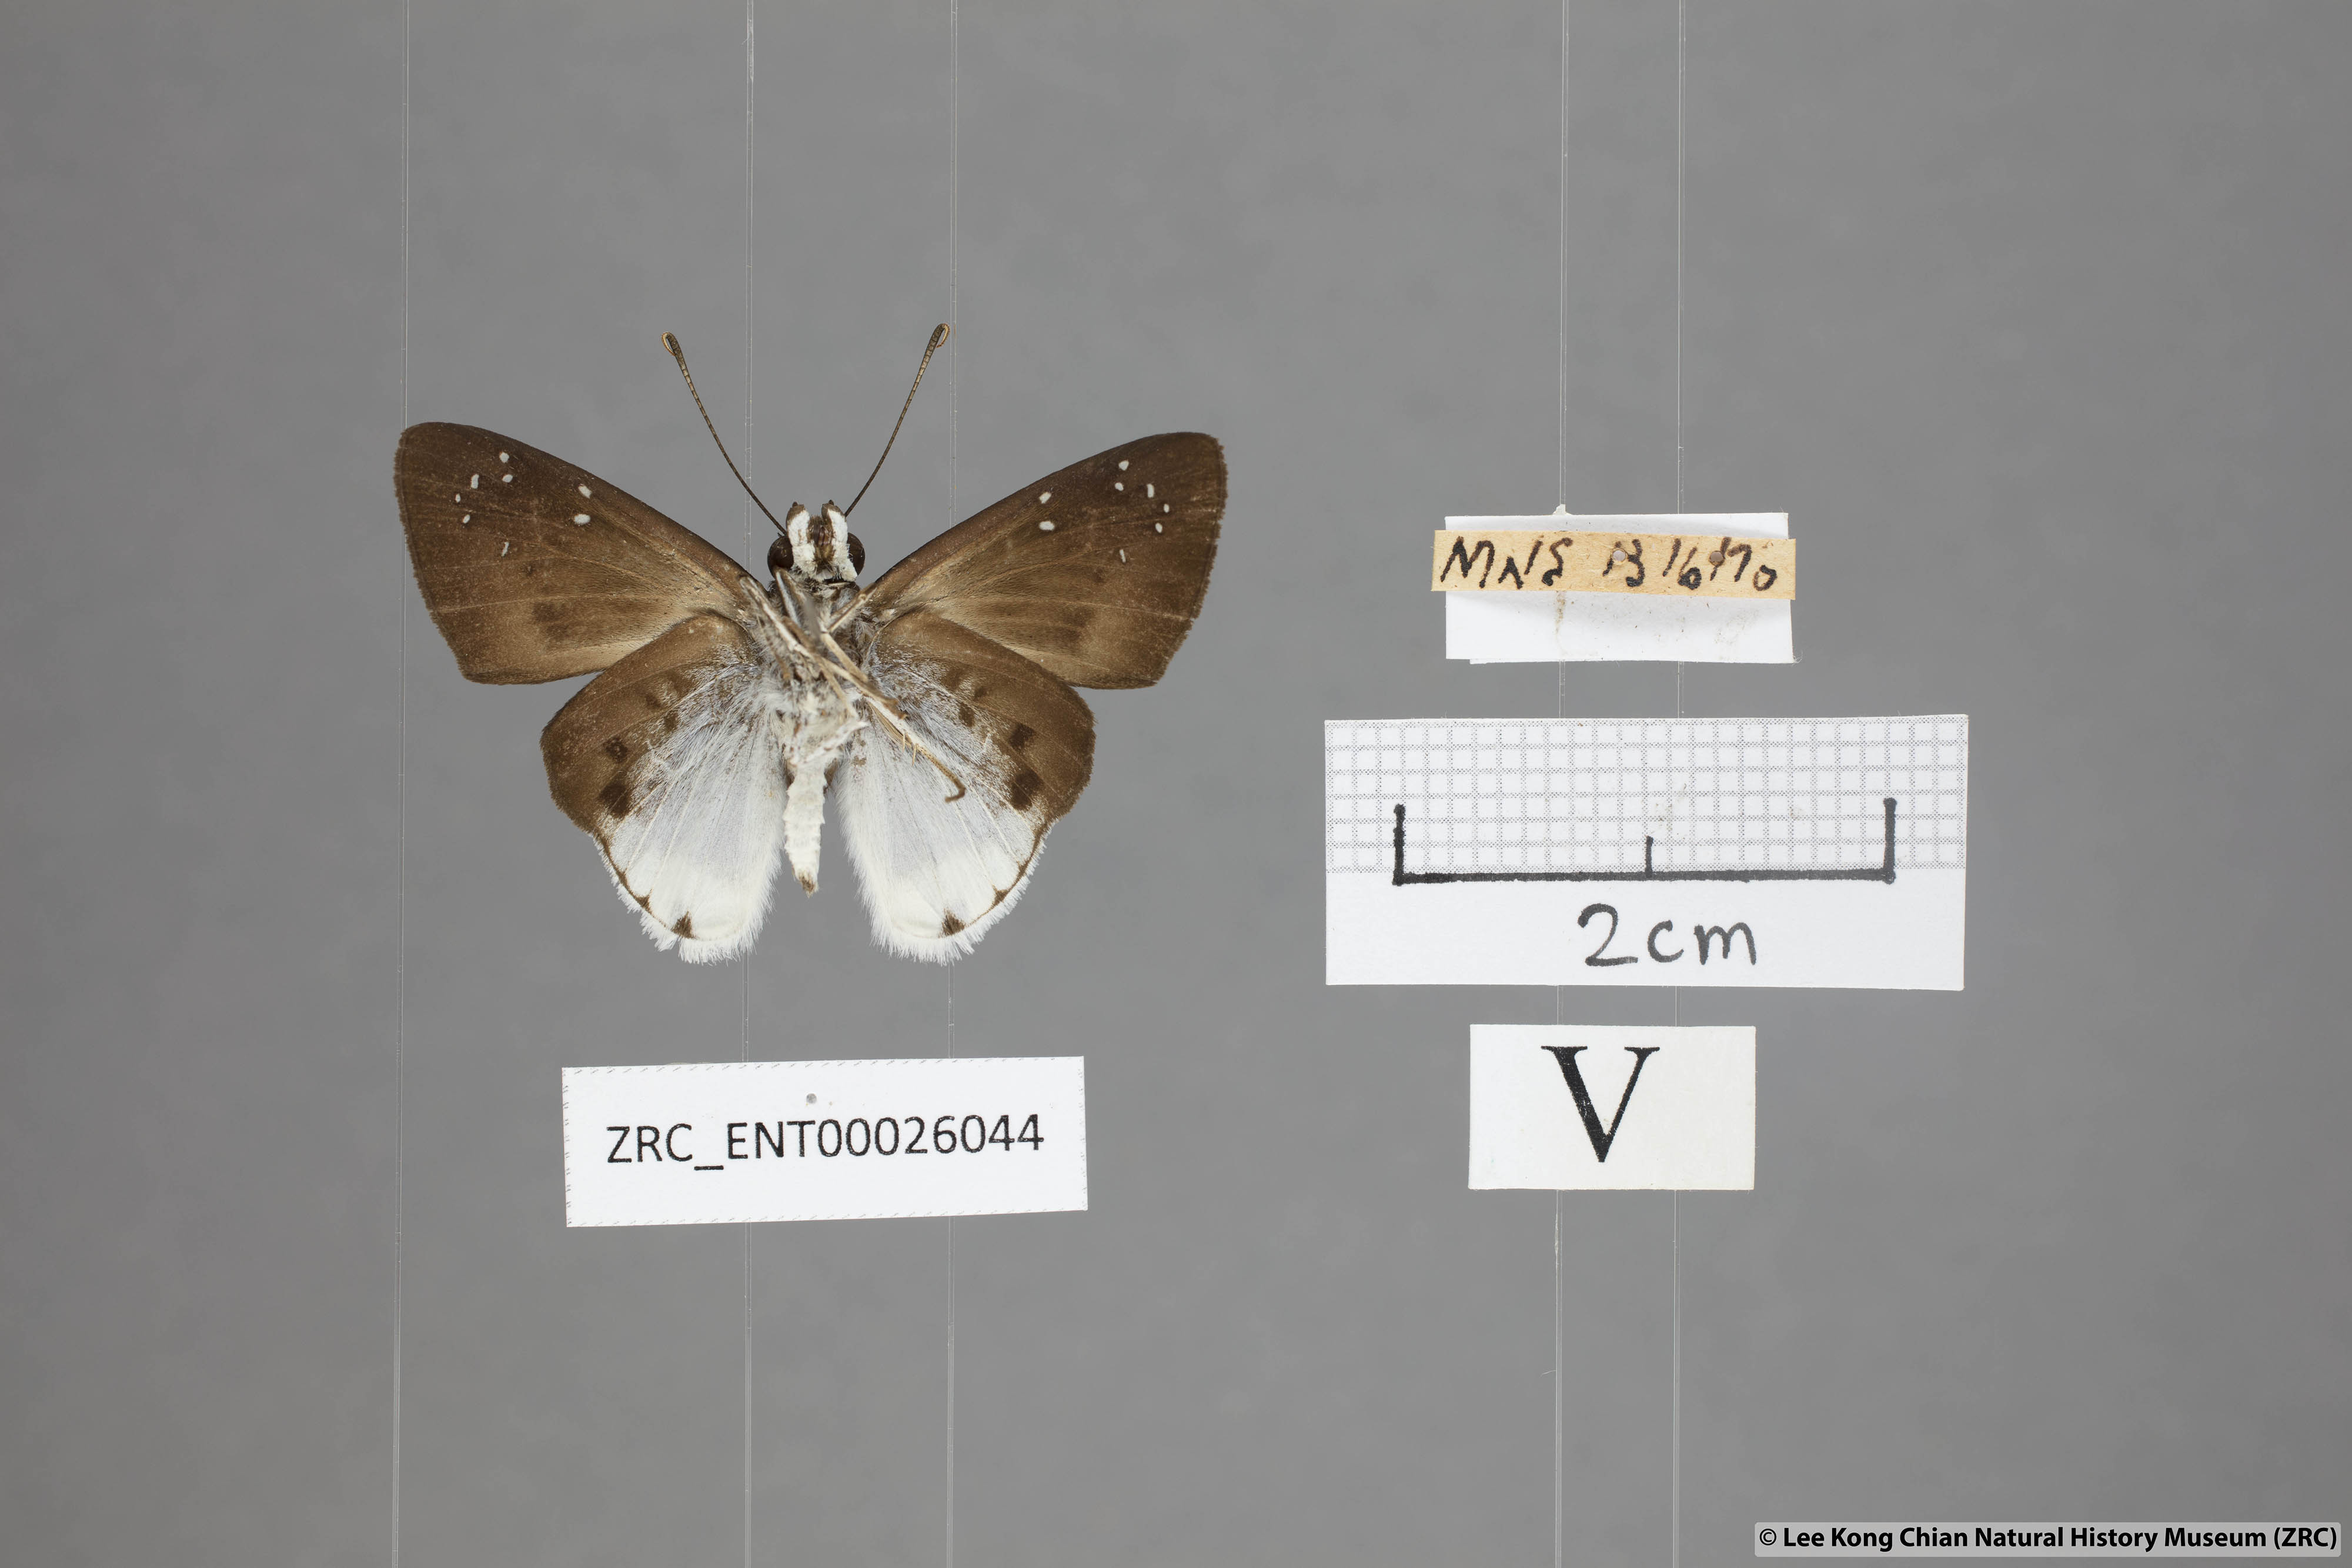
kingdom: Animalia
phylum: Arthropoda
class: Insecta
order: Lepidoptera
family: Hesperiidae
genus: Tagiades
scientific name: Tagiades toba
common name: Different-spotted snow flat
